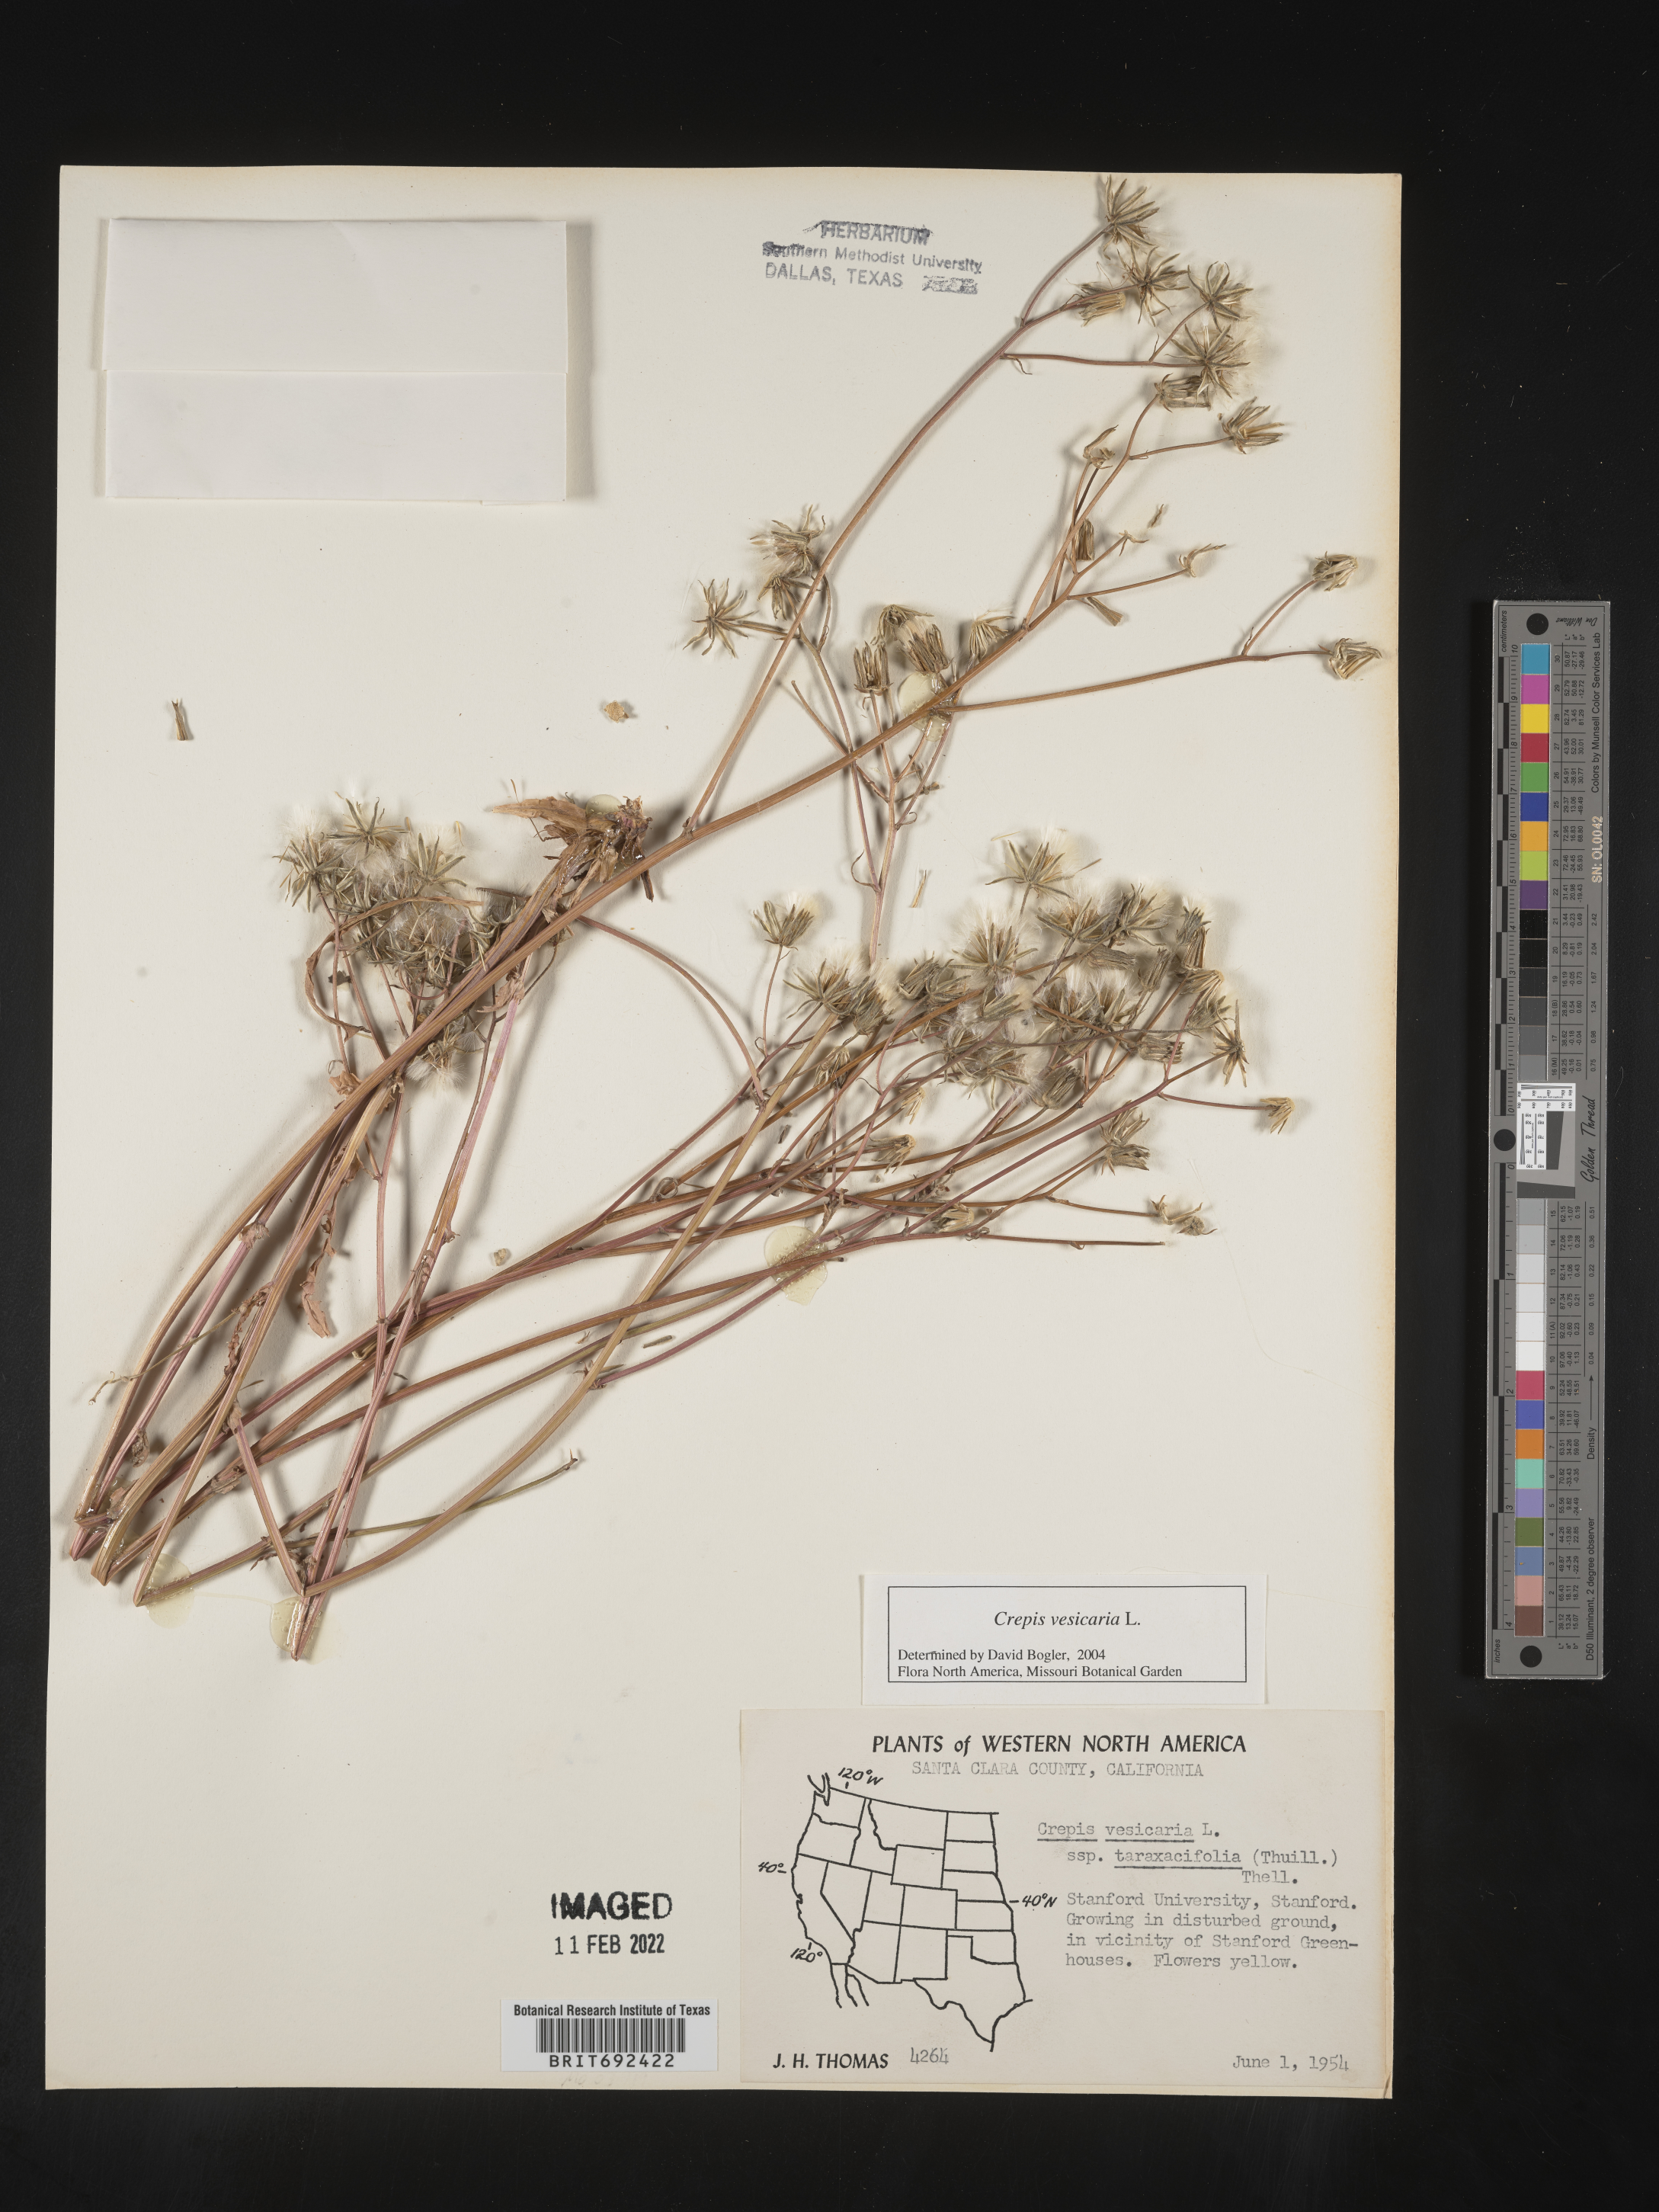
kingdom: Plantae
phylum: Tracheophyta
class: Magnoliopsida
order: Asterales
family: Asteraceae
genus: Crepis
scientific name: Crepis
